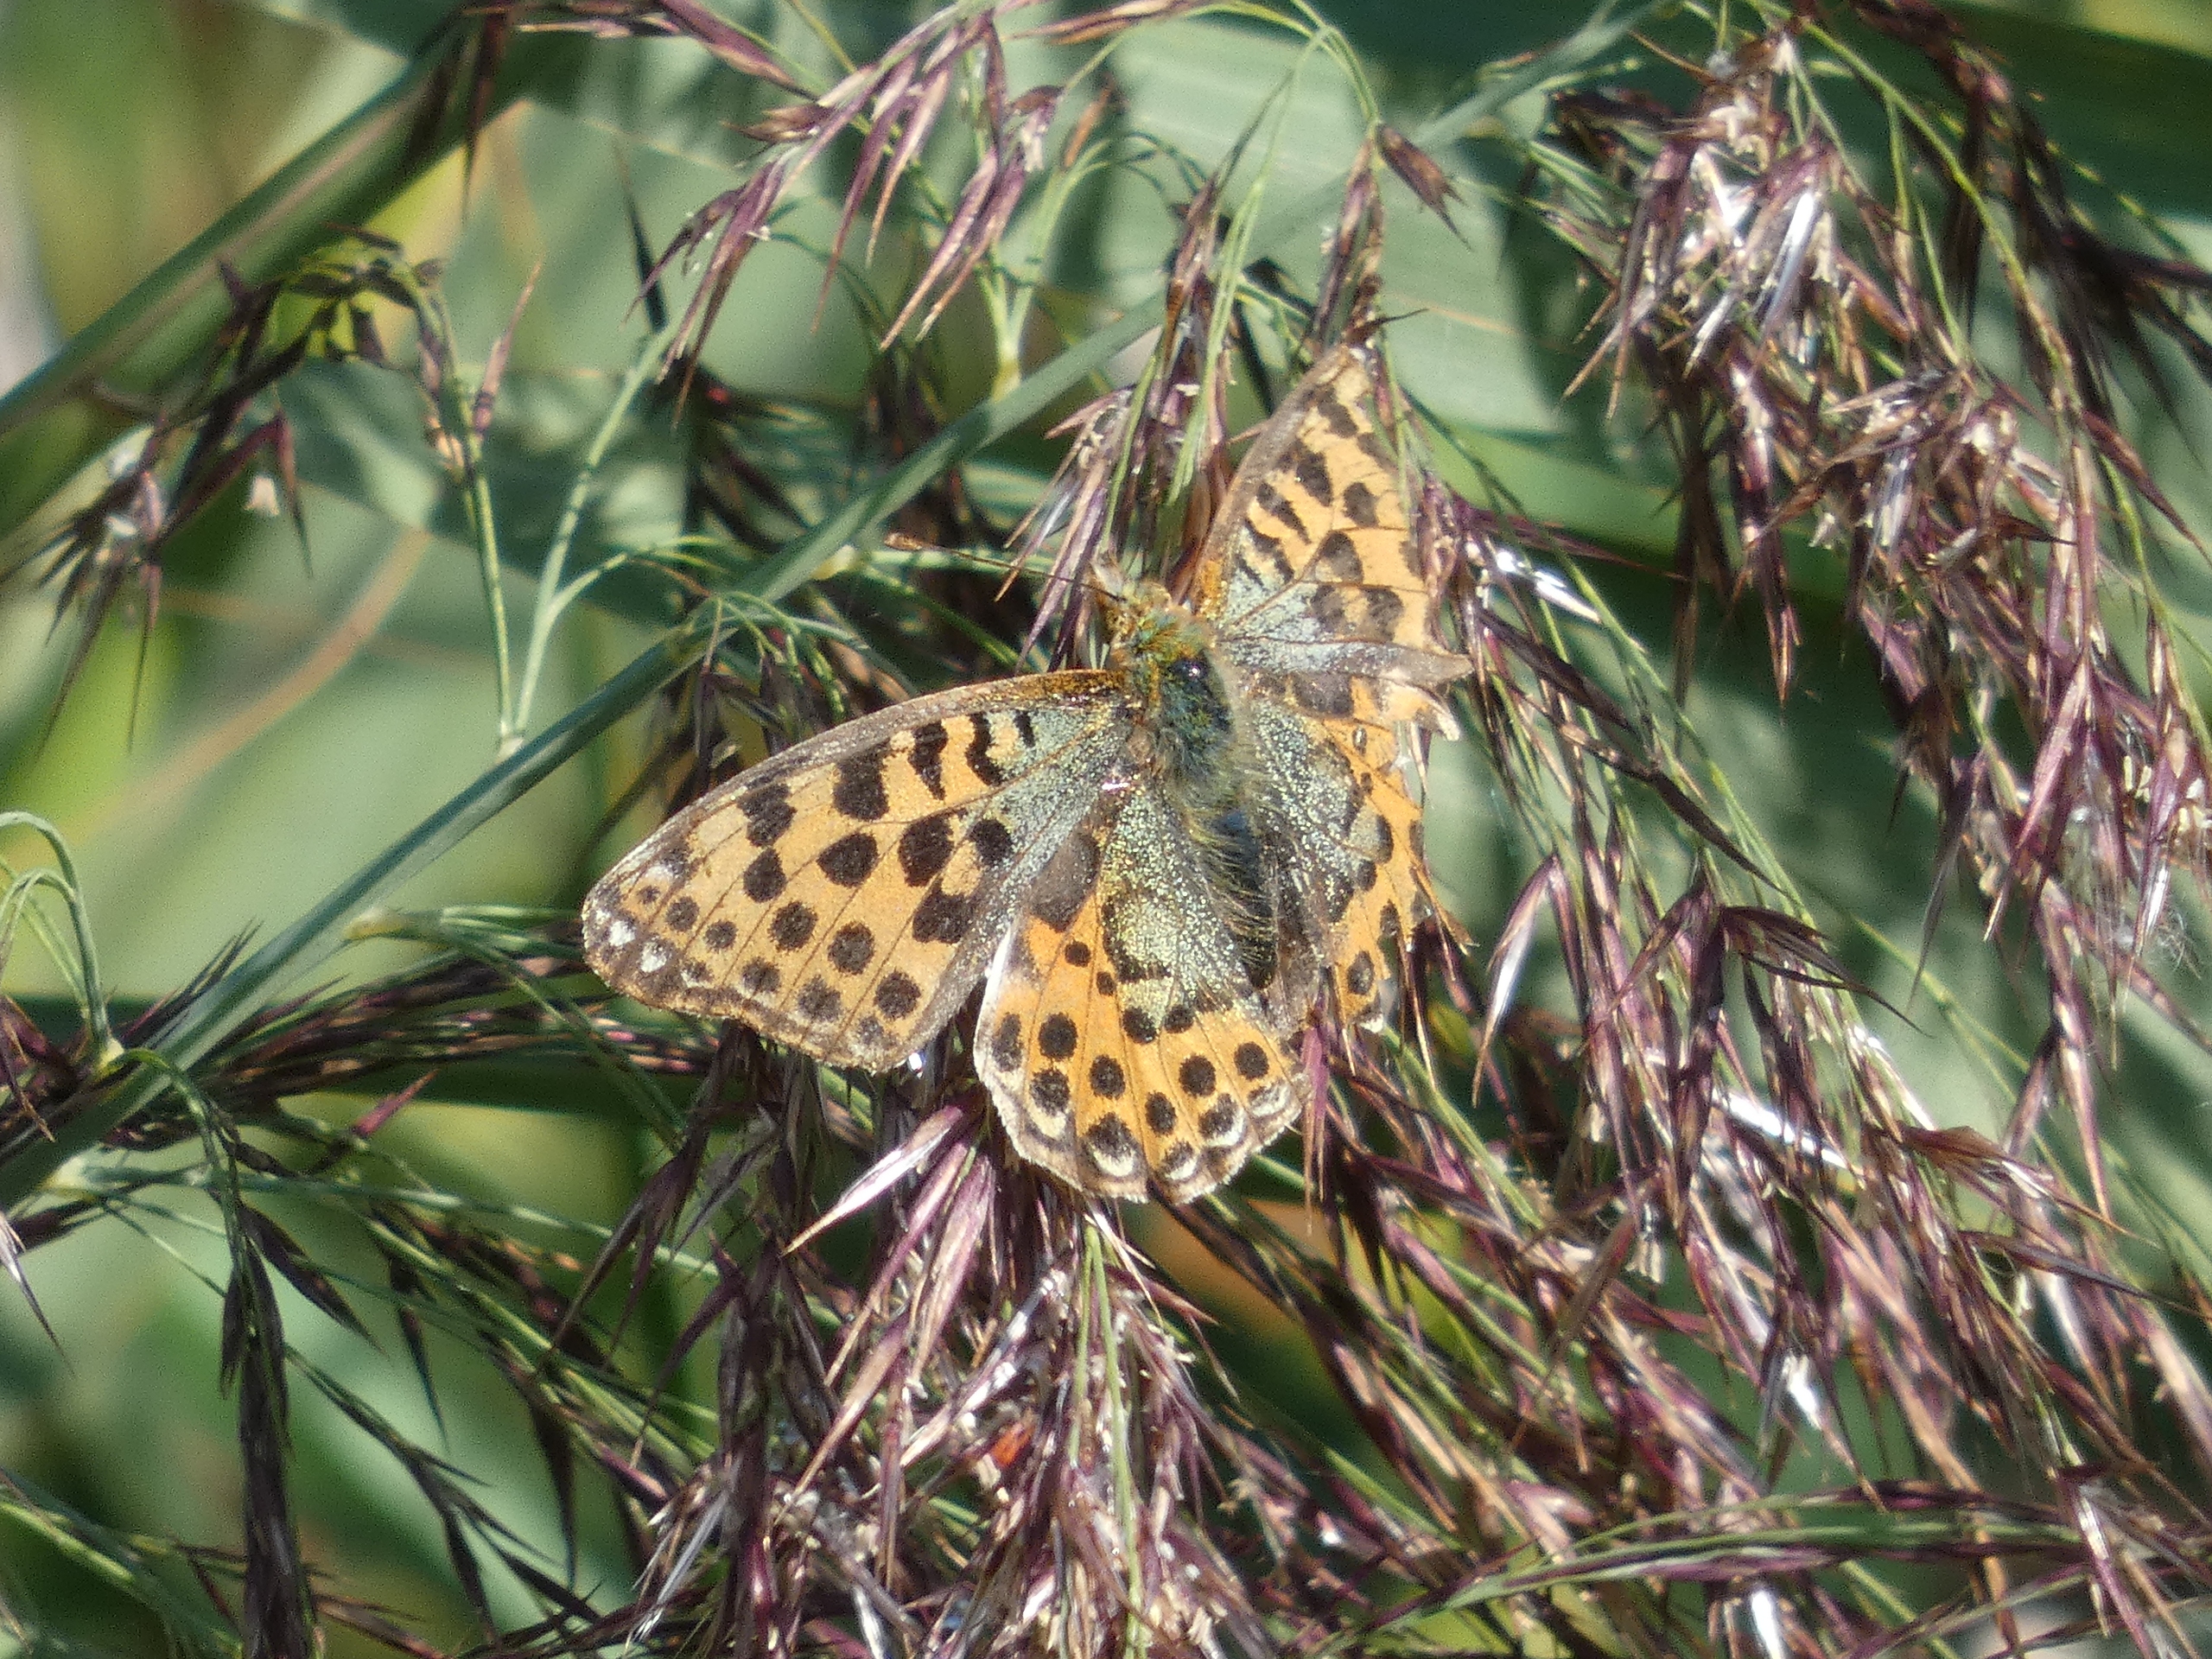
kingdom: Animalia
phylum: Arthropoda
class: Insecta
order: Lepidoptera
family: Nymphalidae
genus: Issoria
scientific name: Issoria lathonia
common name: Storplettet perlemorsommerfugl
